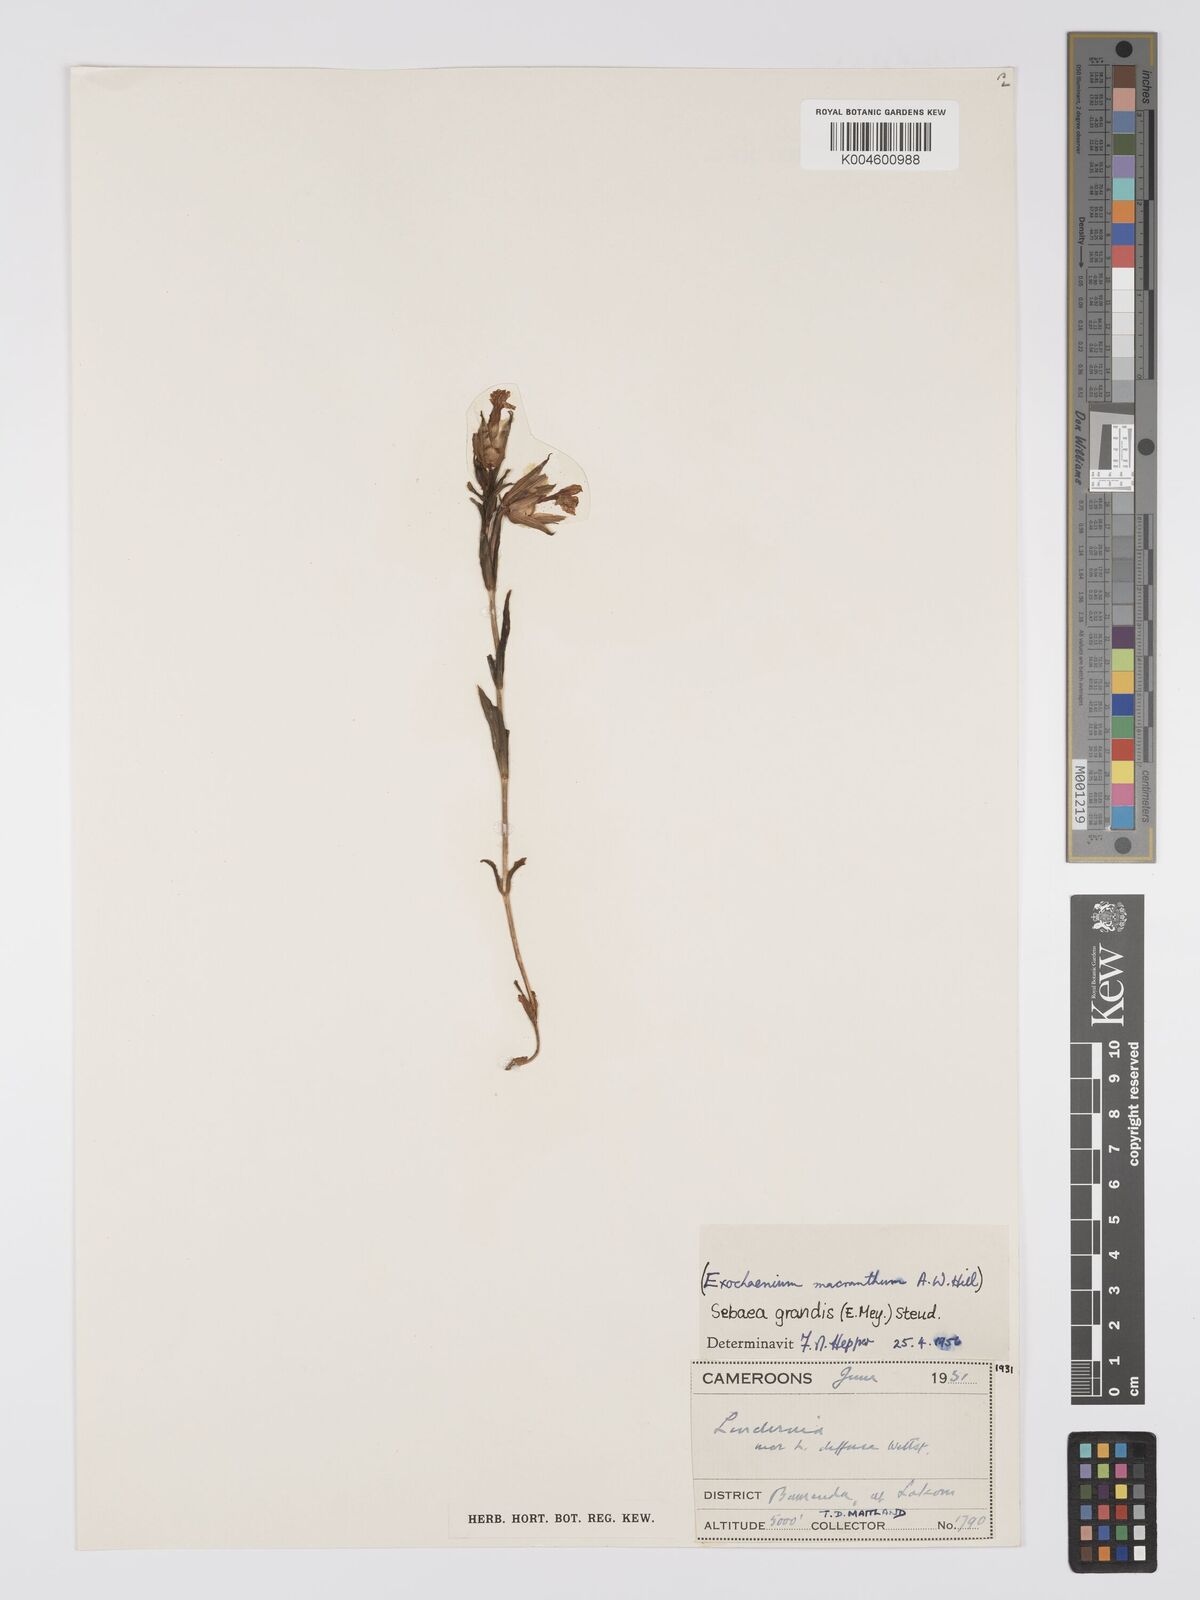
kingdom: Plantae
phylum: Tracheophyta
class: Magnoliopsida
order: Gentianales
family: Gentianaceae
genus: Exochaenium
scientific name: Exochaenium grande
